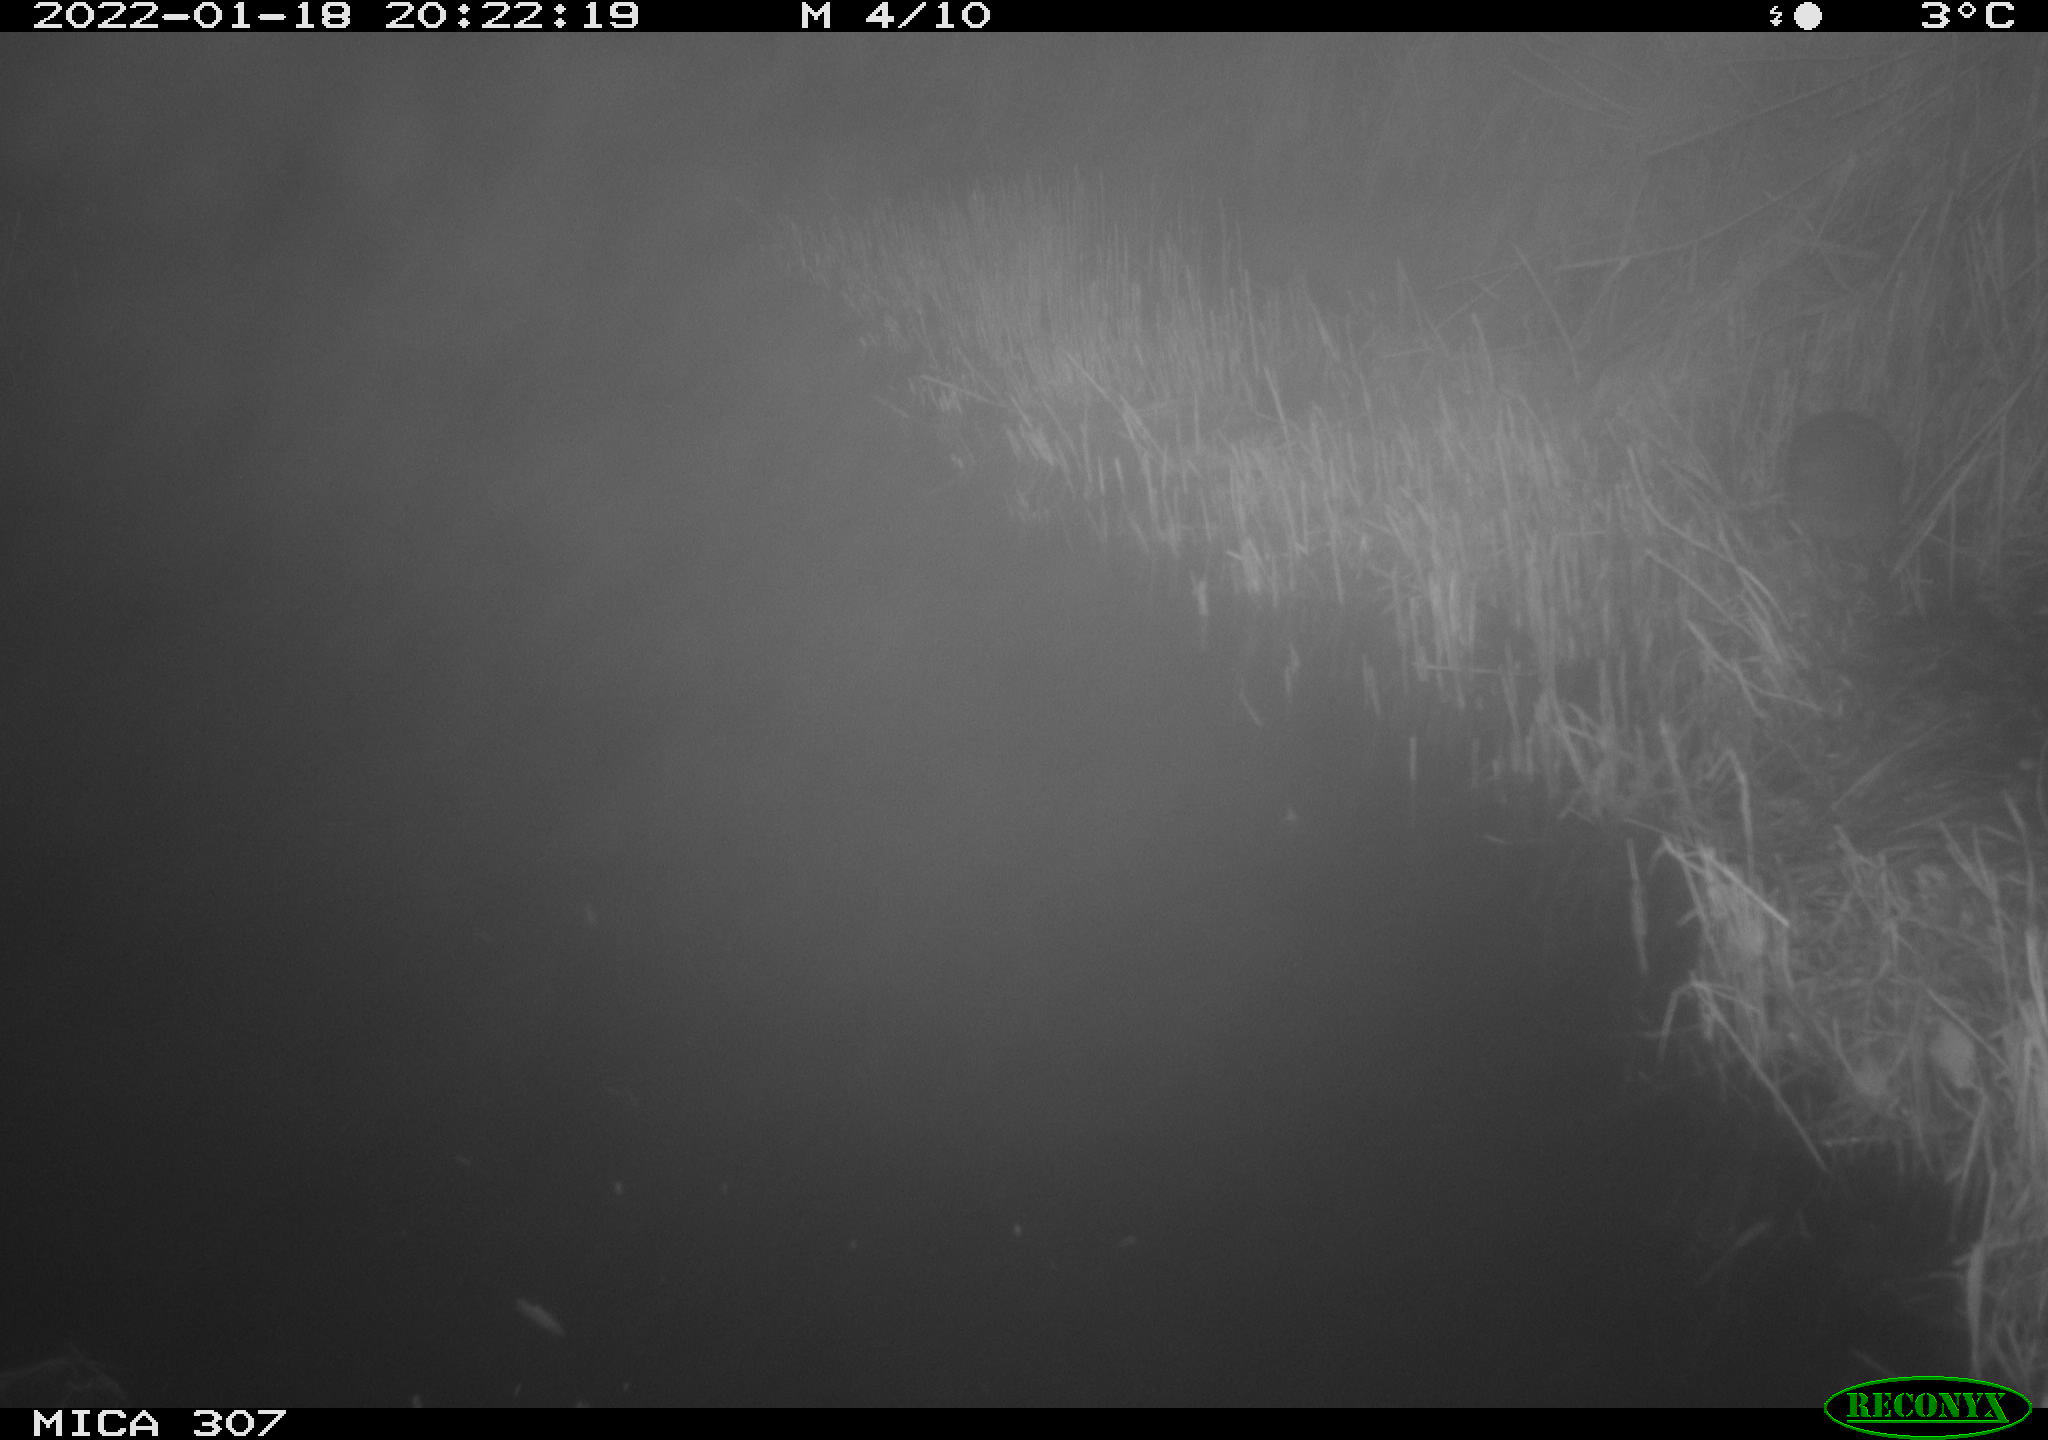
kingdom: Animalia
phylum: Chordata
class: Mammalia
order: Rodentia
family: Muridae
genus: Rattus
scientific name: Rattus norvegicus
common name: Brown rat
